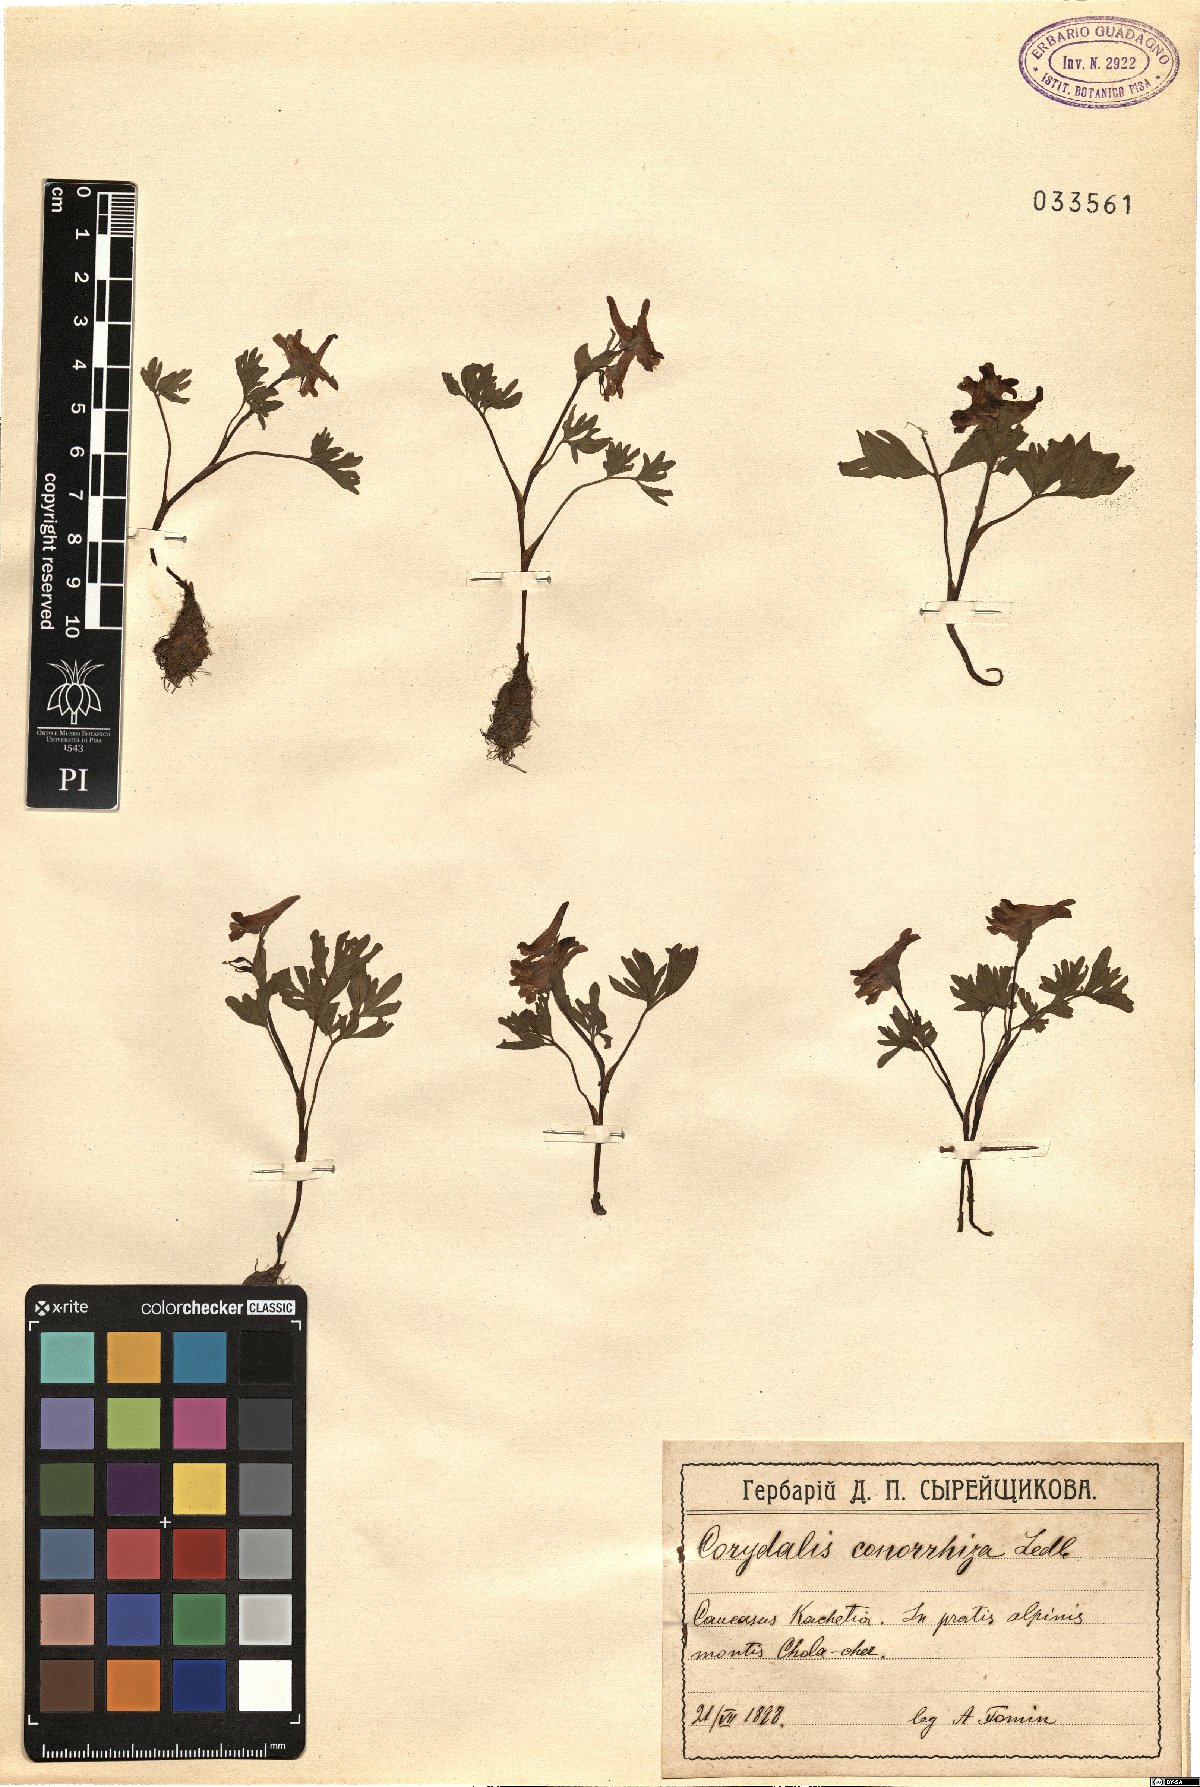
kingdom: Plantae
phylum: Tracheophyta
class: Magnoliopsida
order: Ranunculales
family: Papaveraceae
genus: Corydalis
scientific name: Corydalis conorhiza
